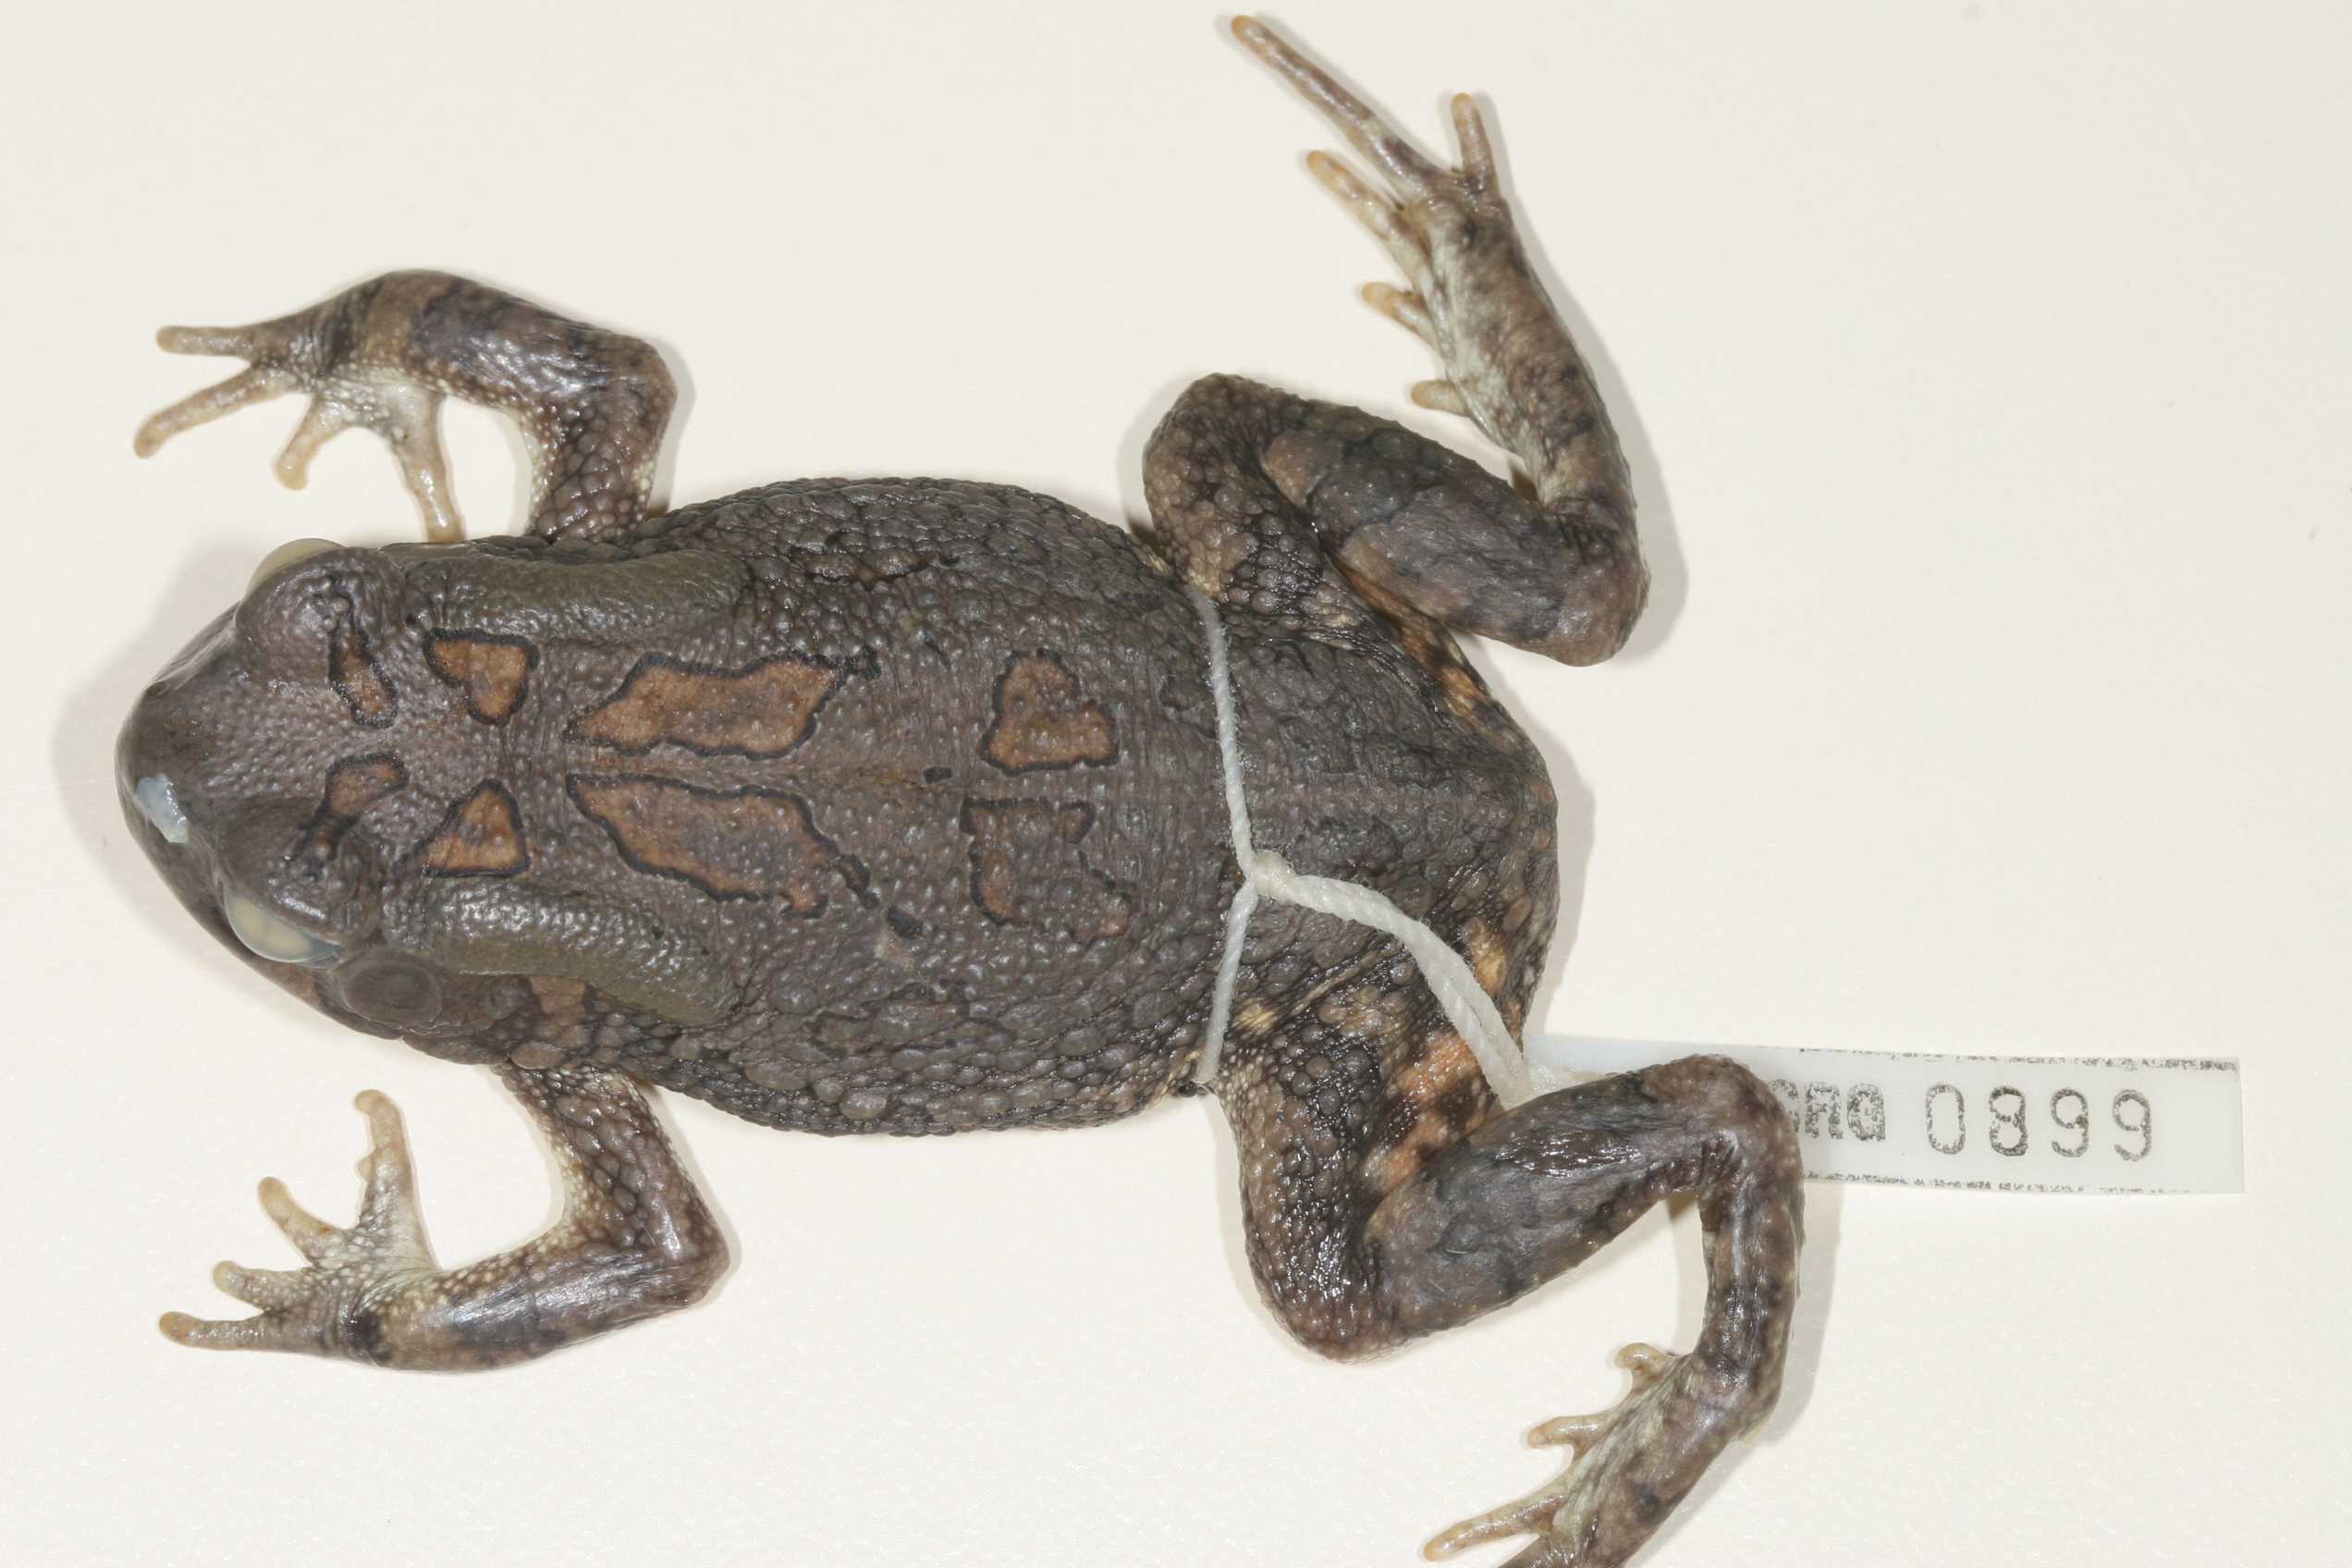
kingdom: Animalia
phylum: Chordata
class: Amphibia
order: Anura
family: Bufonidae
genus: Sclerophrys
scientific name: Sclerophrys garmani
